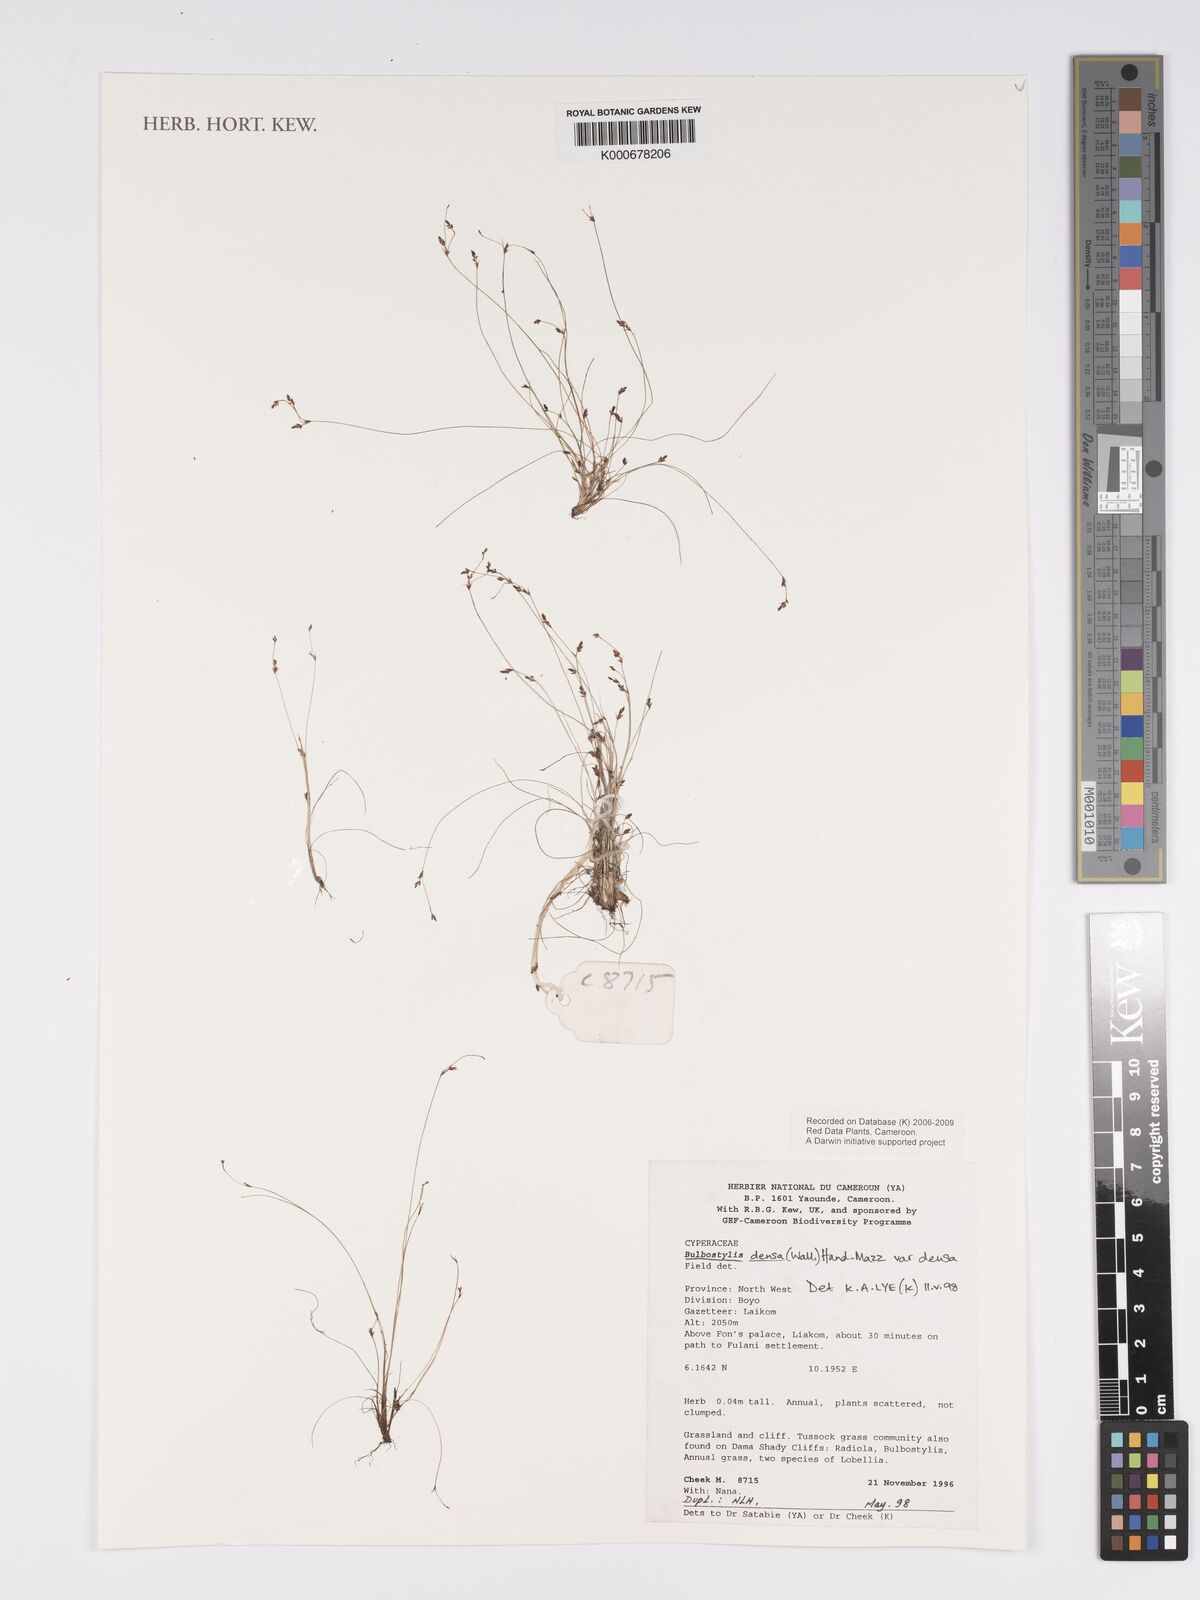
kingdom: Plantae
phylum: Tracheophyta
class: Liliopsida
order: Poales
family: Cyperaceae
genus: Bulbostylis
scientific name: Bulbostylis densa
